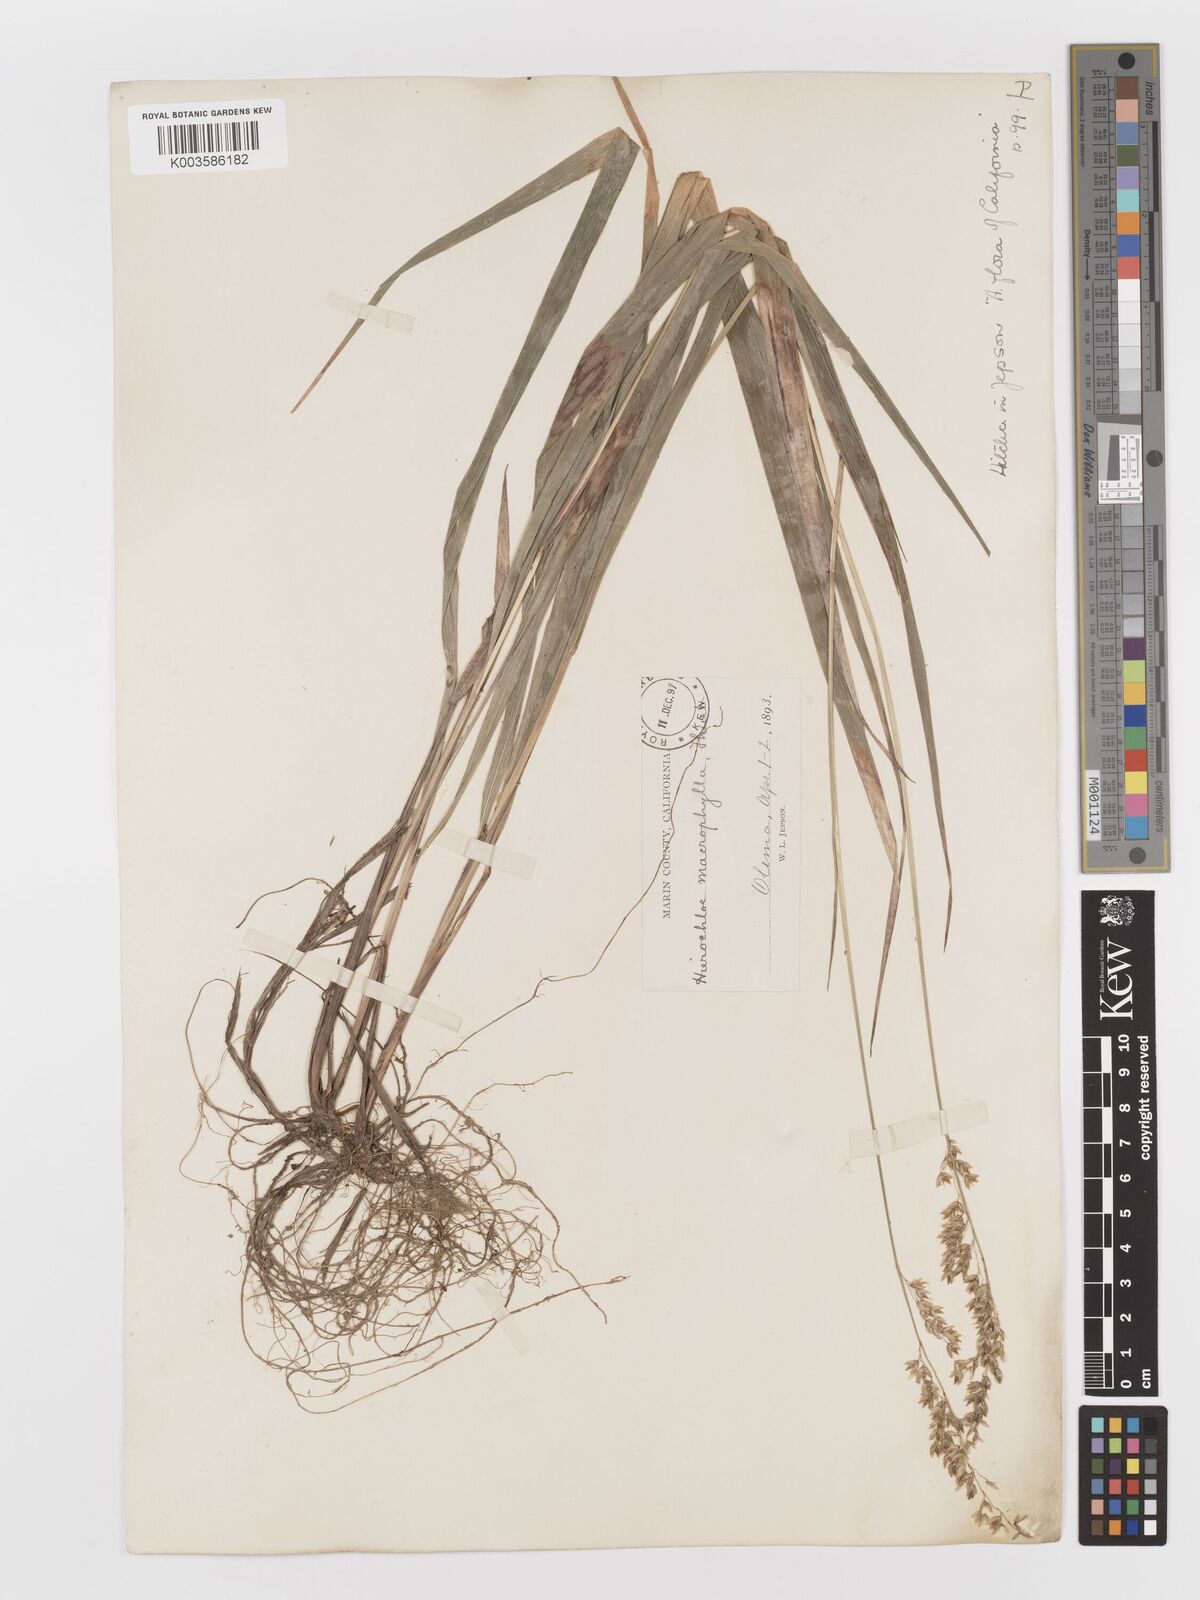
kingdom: Plantae
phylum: Tracheophyta
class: Liliopsida
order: Poales
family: Poaceae
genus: Anthoxanthum
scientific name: Anthoxanthum occidentale
